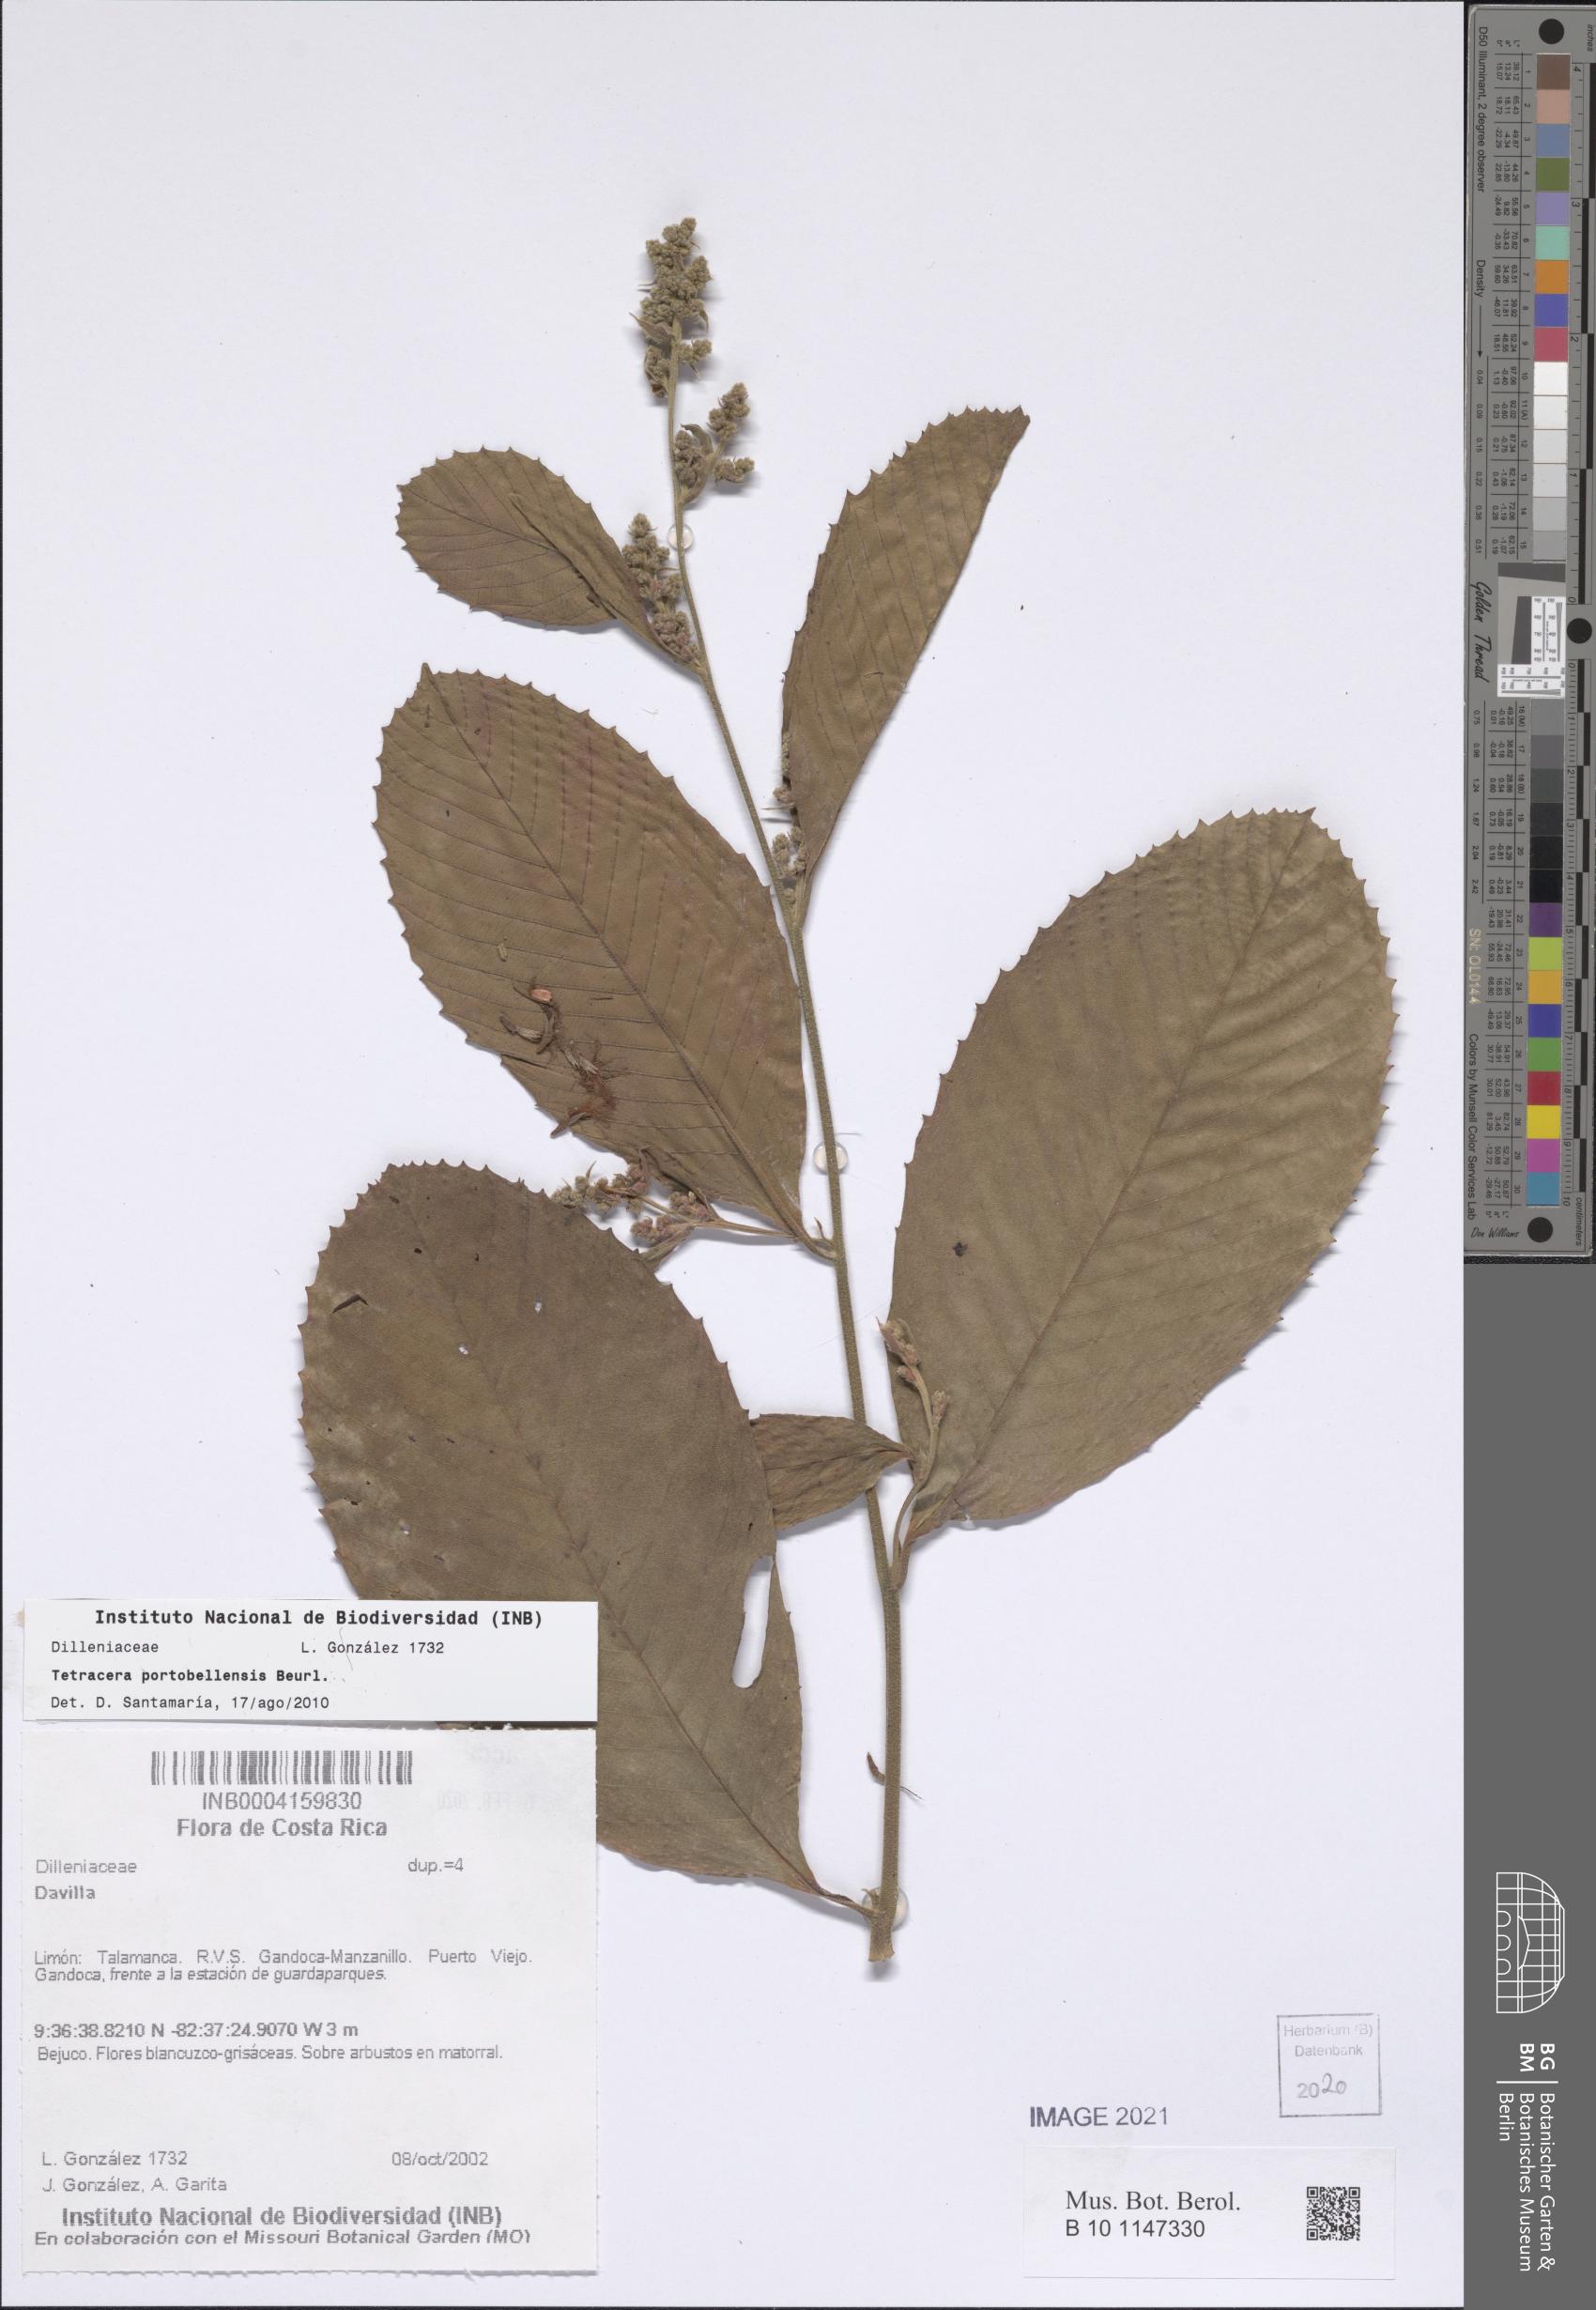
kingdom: Plantae
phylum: Tracheophyta
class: Magnoliopsida
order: Dilleniales
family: Dilleniaceae
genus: Tetracera
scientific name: Tetracera portobellensis
